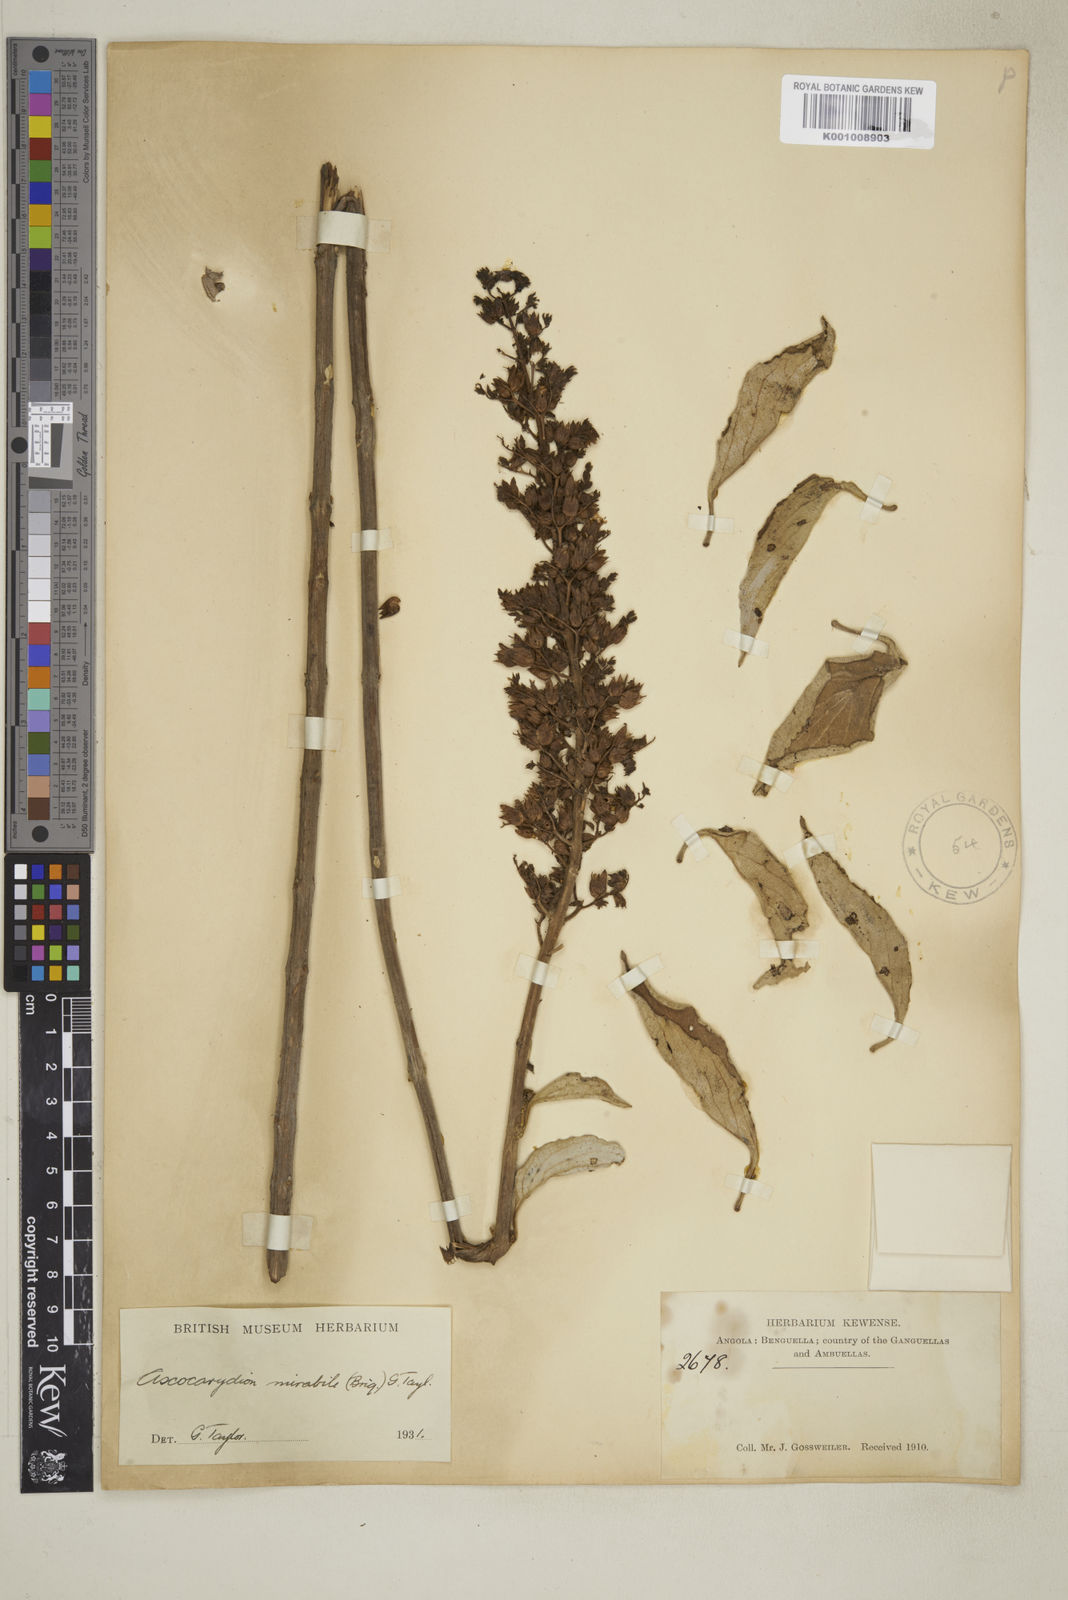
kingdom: Plantae
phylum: Tracheophyta
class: Magnoliopsida
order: Lamiales
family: Lamiaceae
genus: Plectranthus
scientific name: Plectranthus
